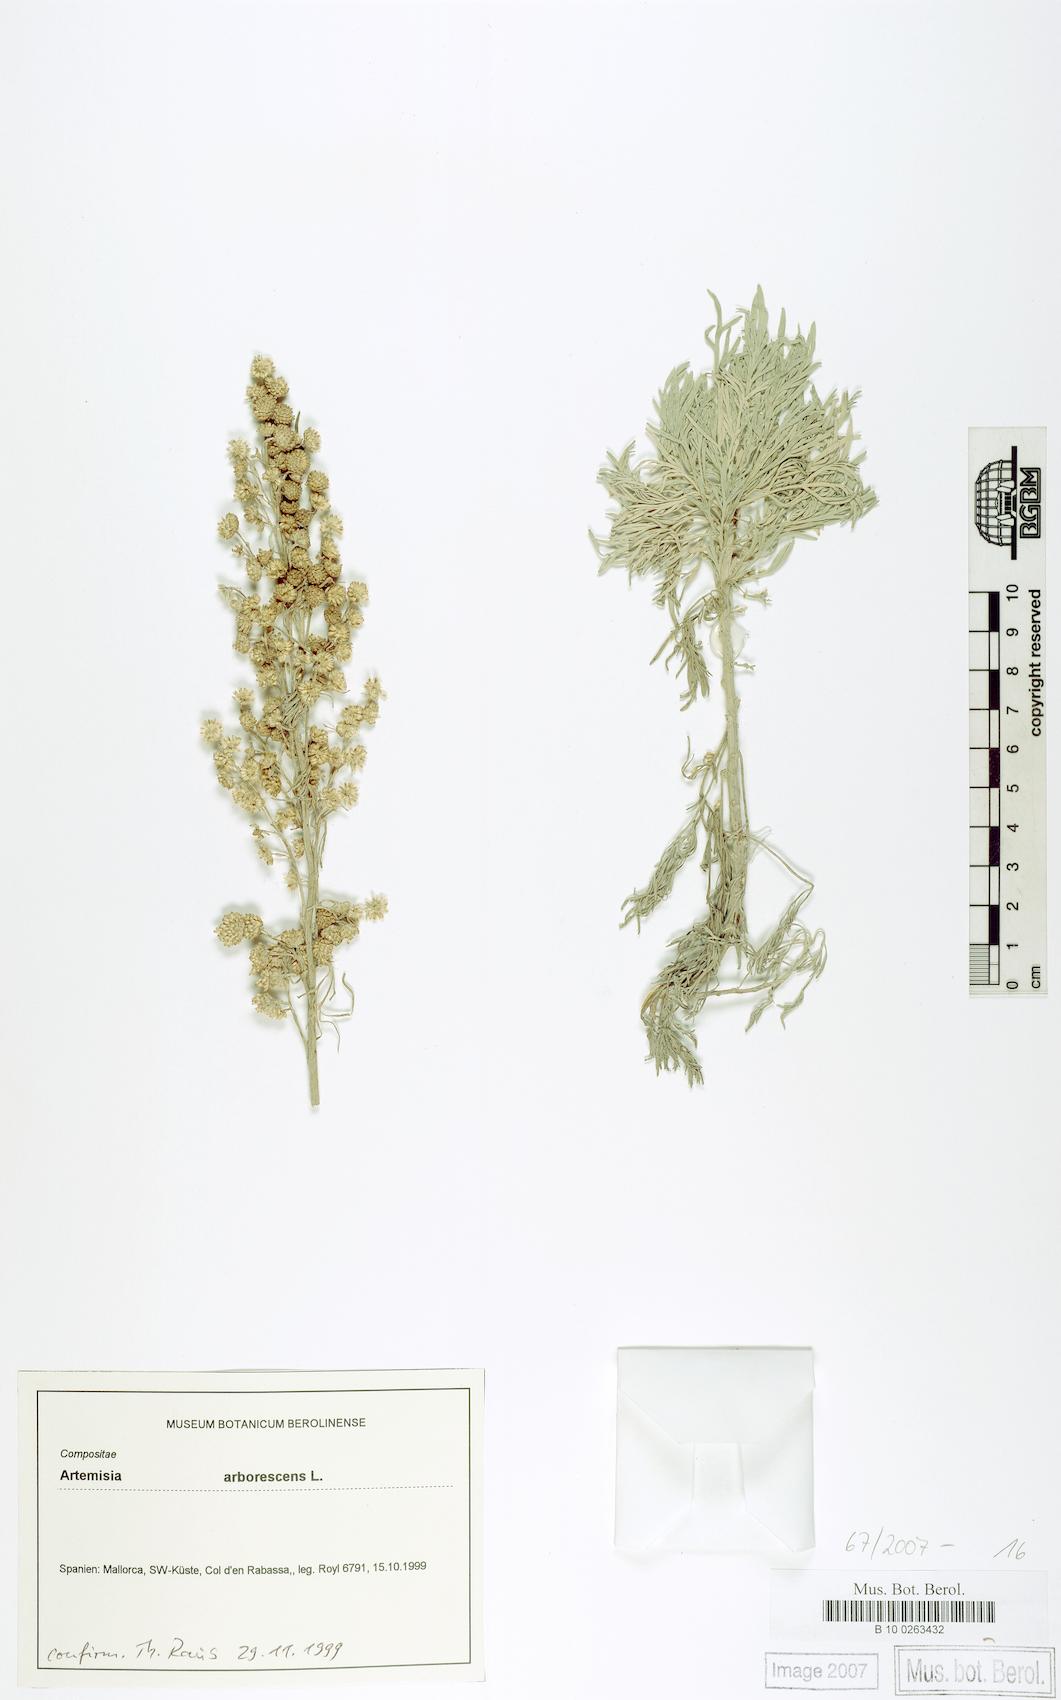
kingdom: Plantae
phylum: Tracheophyta
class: Magnoliopsida
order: Asterales
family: Asteraceae
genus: Artemisia
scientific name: Artemisia arborescens
